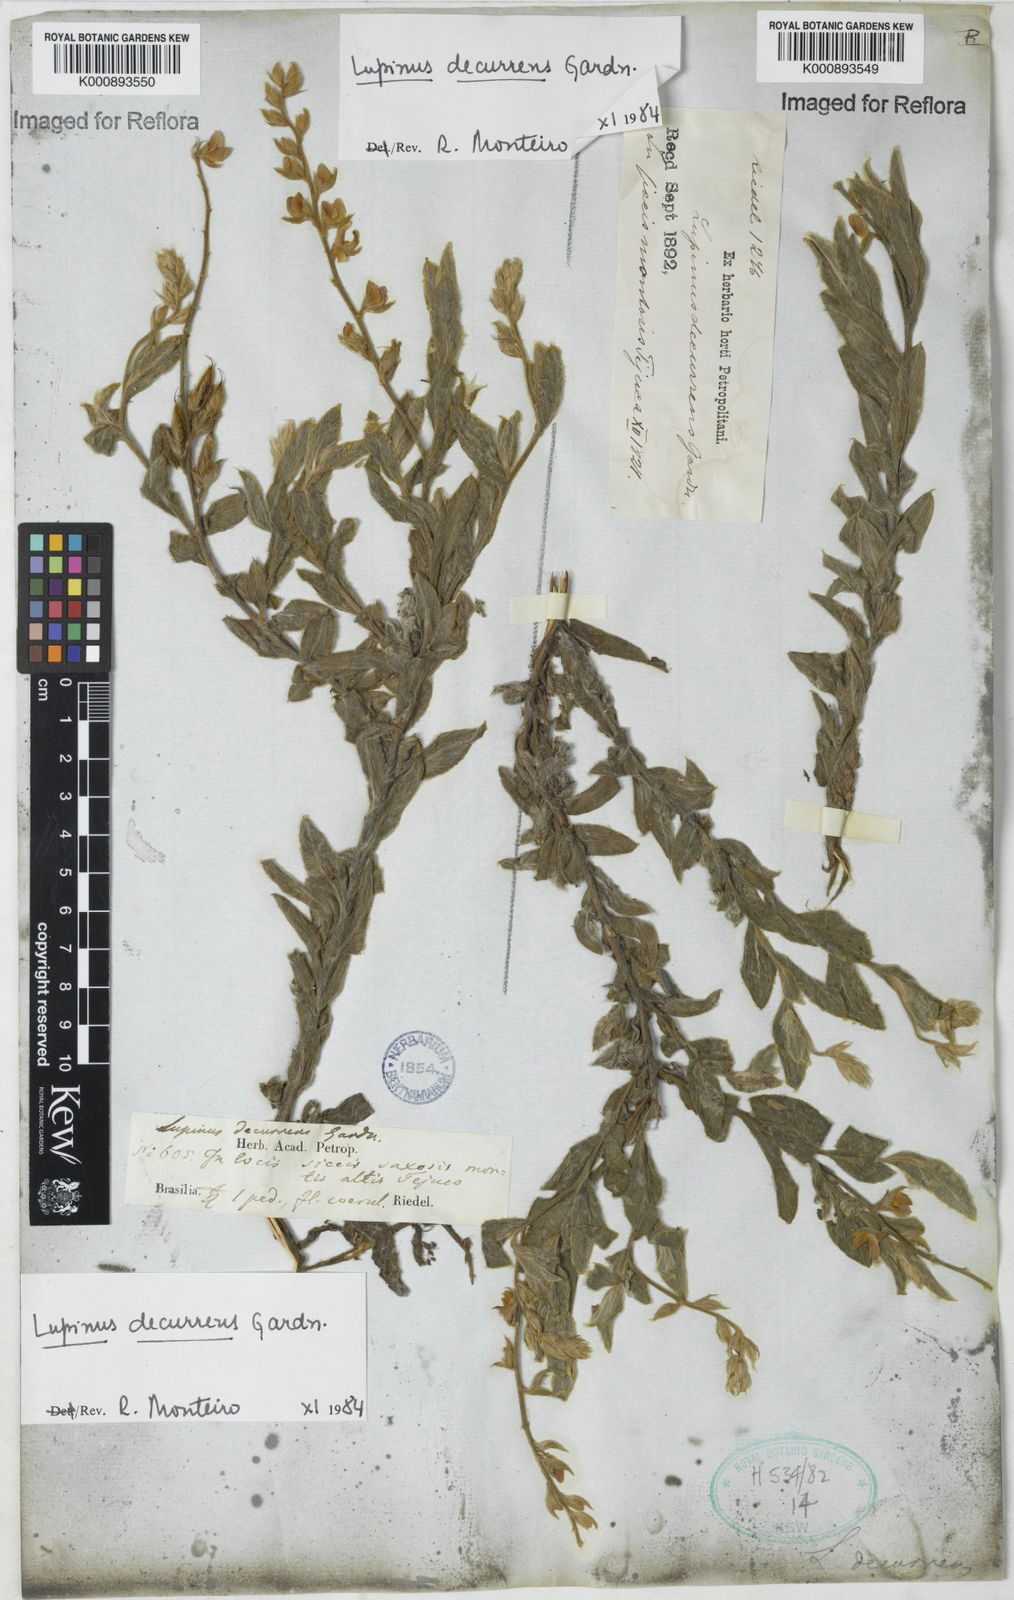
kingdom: Plantae
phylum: Tracheophyta
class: Magnoliopsida
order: Fabales
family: Fabaceae
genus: Lupinus
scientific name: Lupinus decurrens
